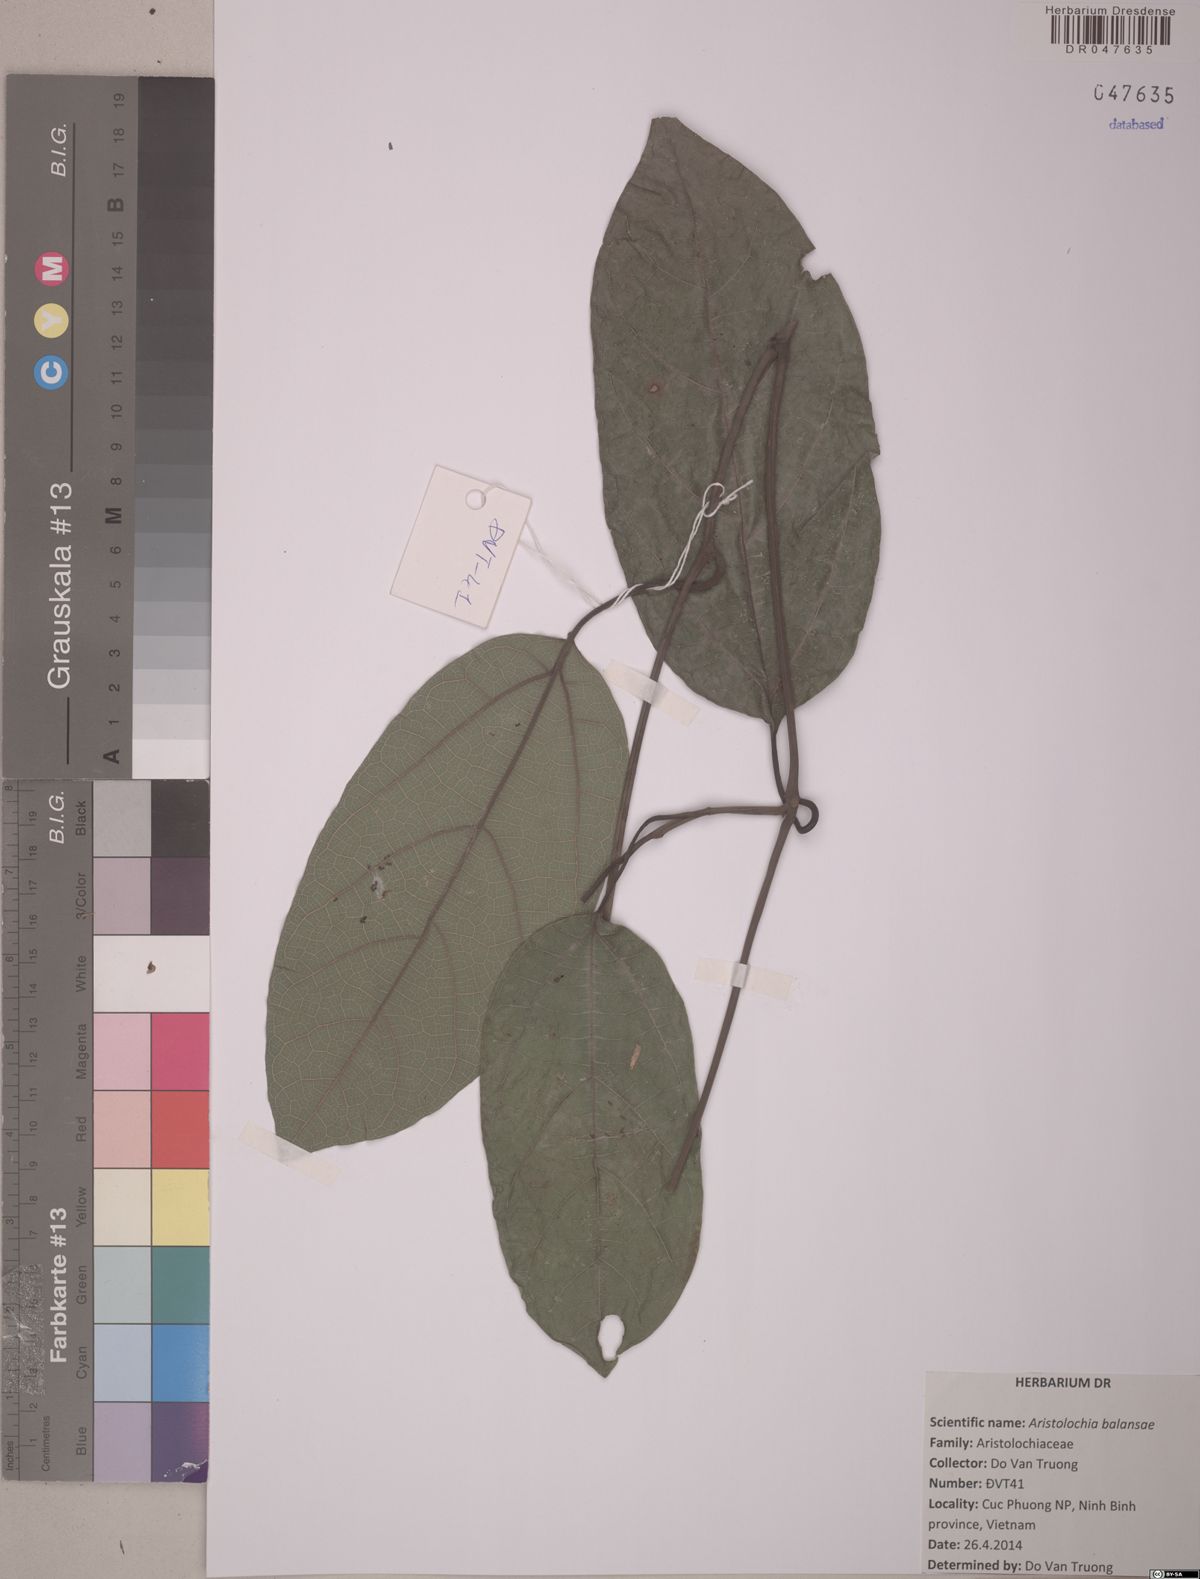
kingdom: Plantae
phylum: Tracheophyta
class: Magnoliopsida
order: Piperales
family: Aristolochiaceae
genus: Isotrema
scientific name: Isotrema balansae
